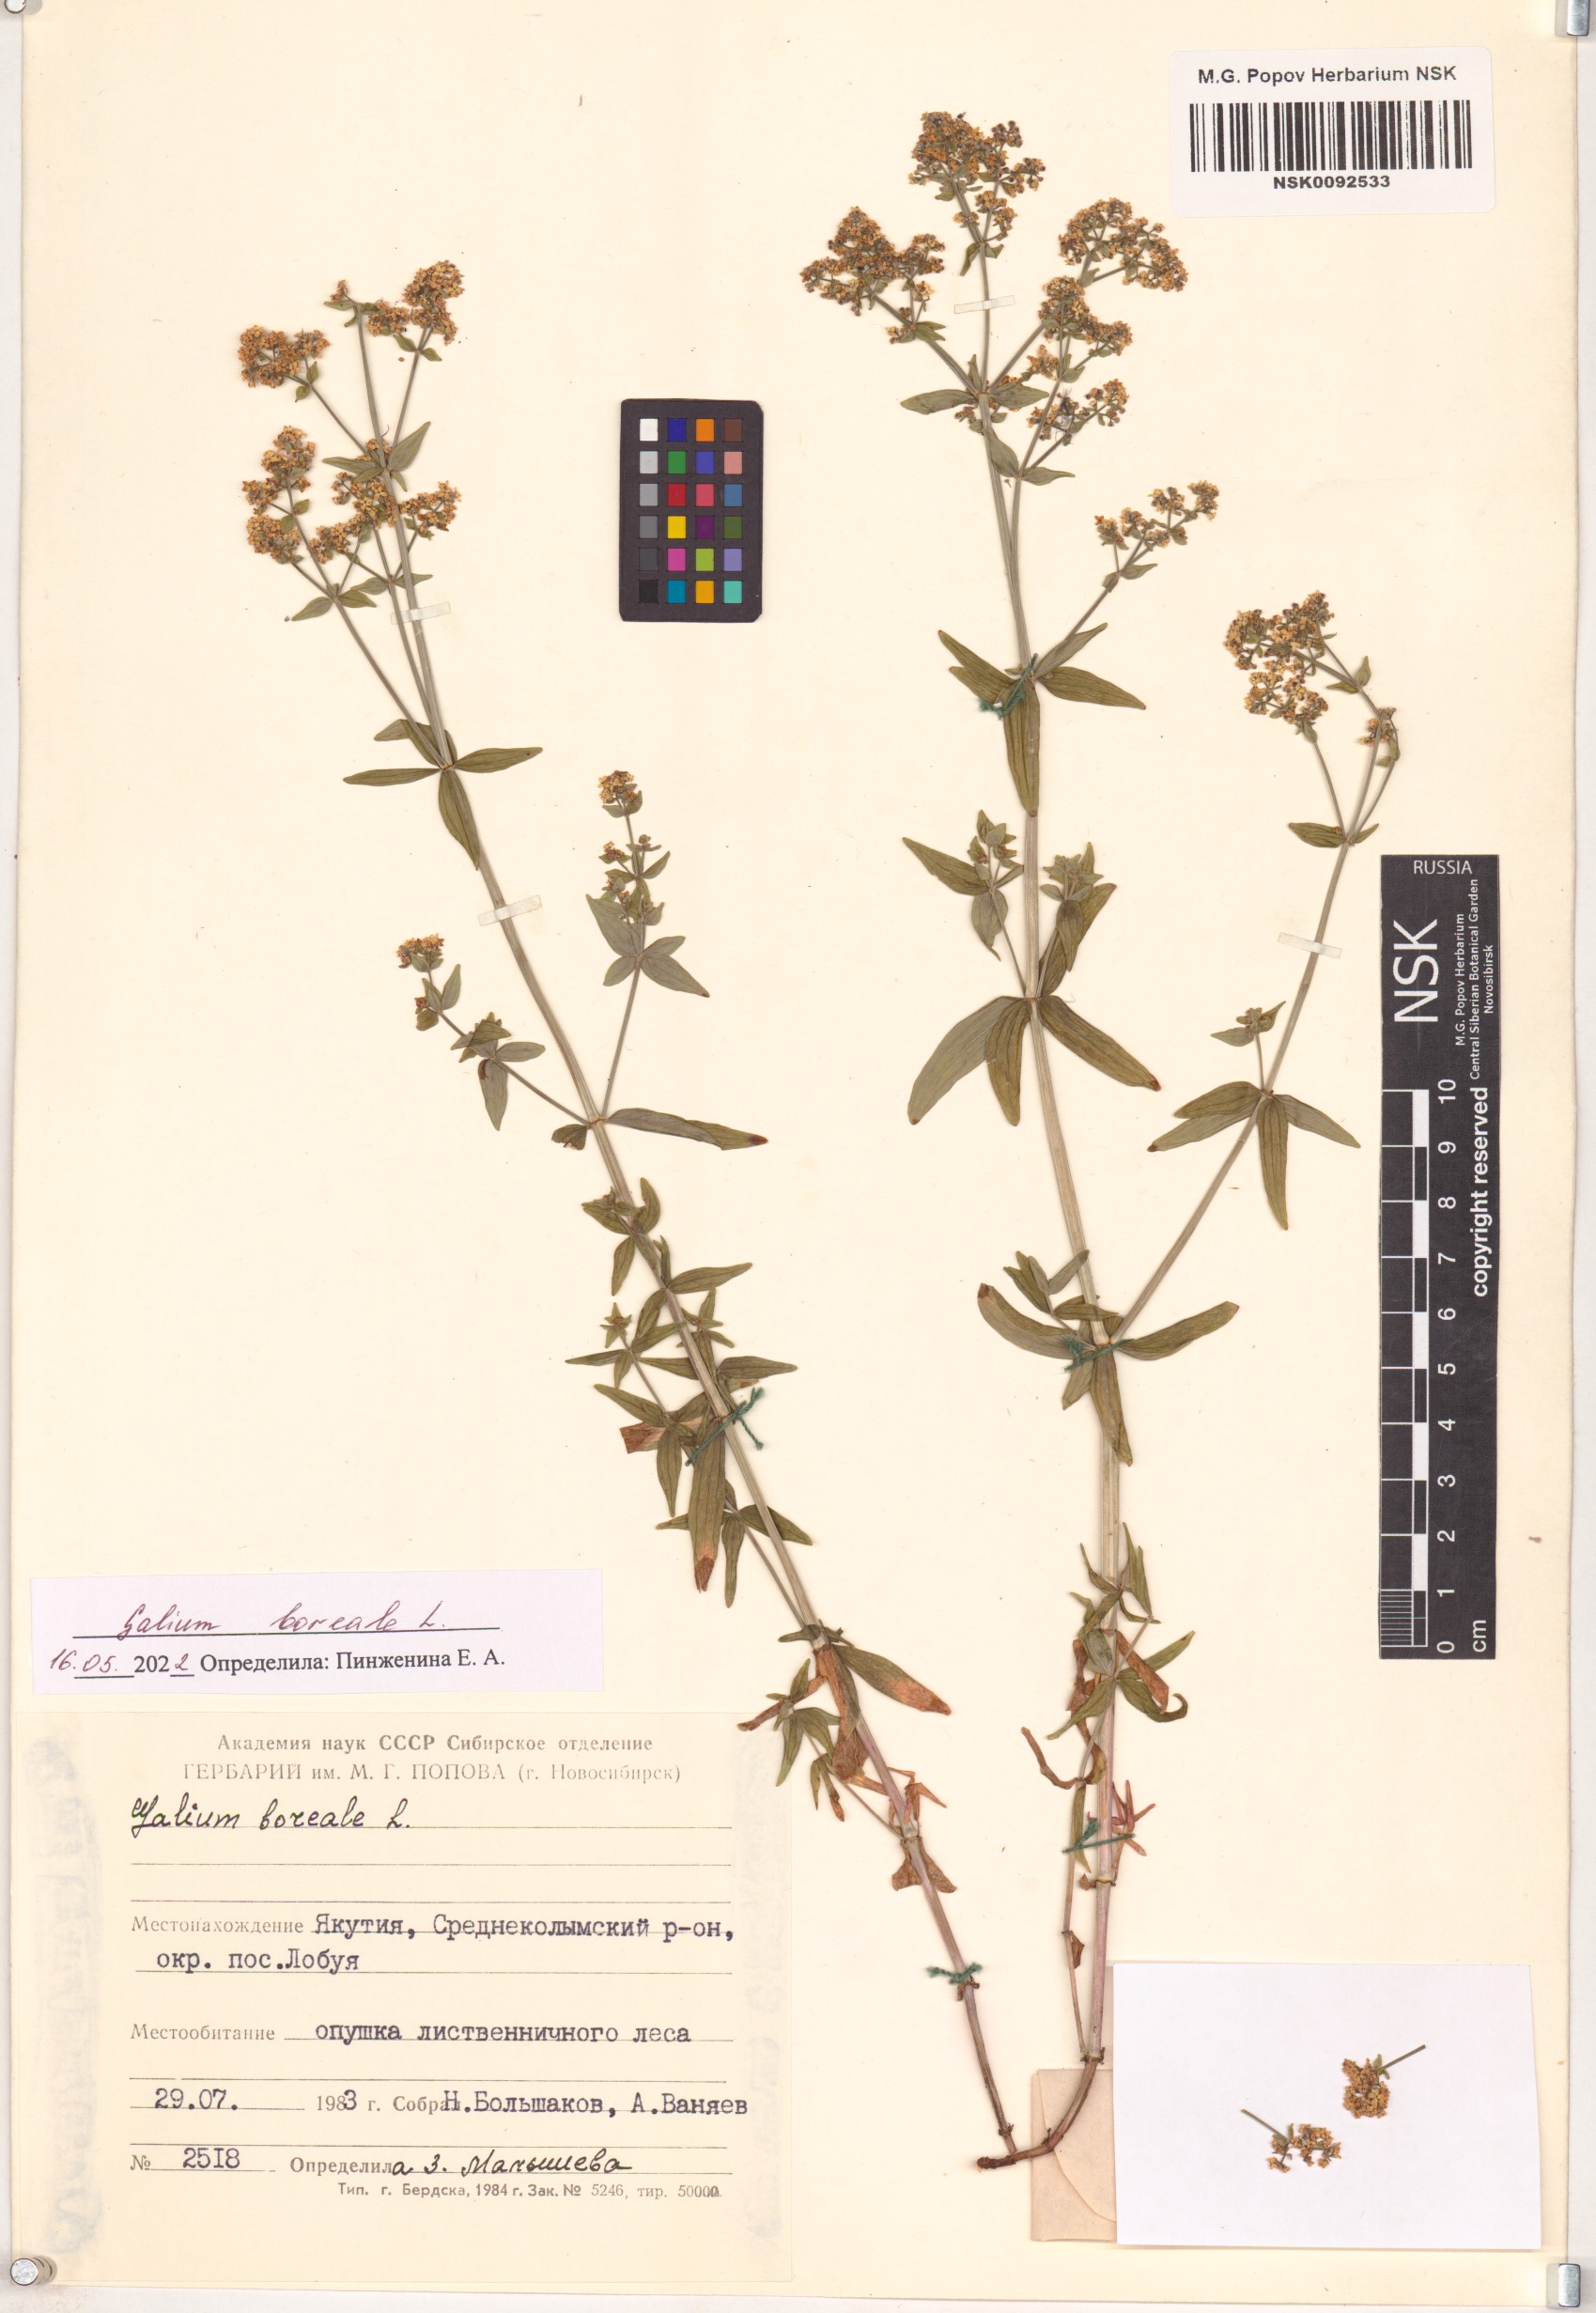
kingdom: Plantae
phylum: Tracheophyta
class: Magnoliopsida
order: Gentianales
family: Rubiaceae
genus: Galium
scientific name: Galium boreale
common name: Northern bedstraw
